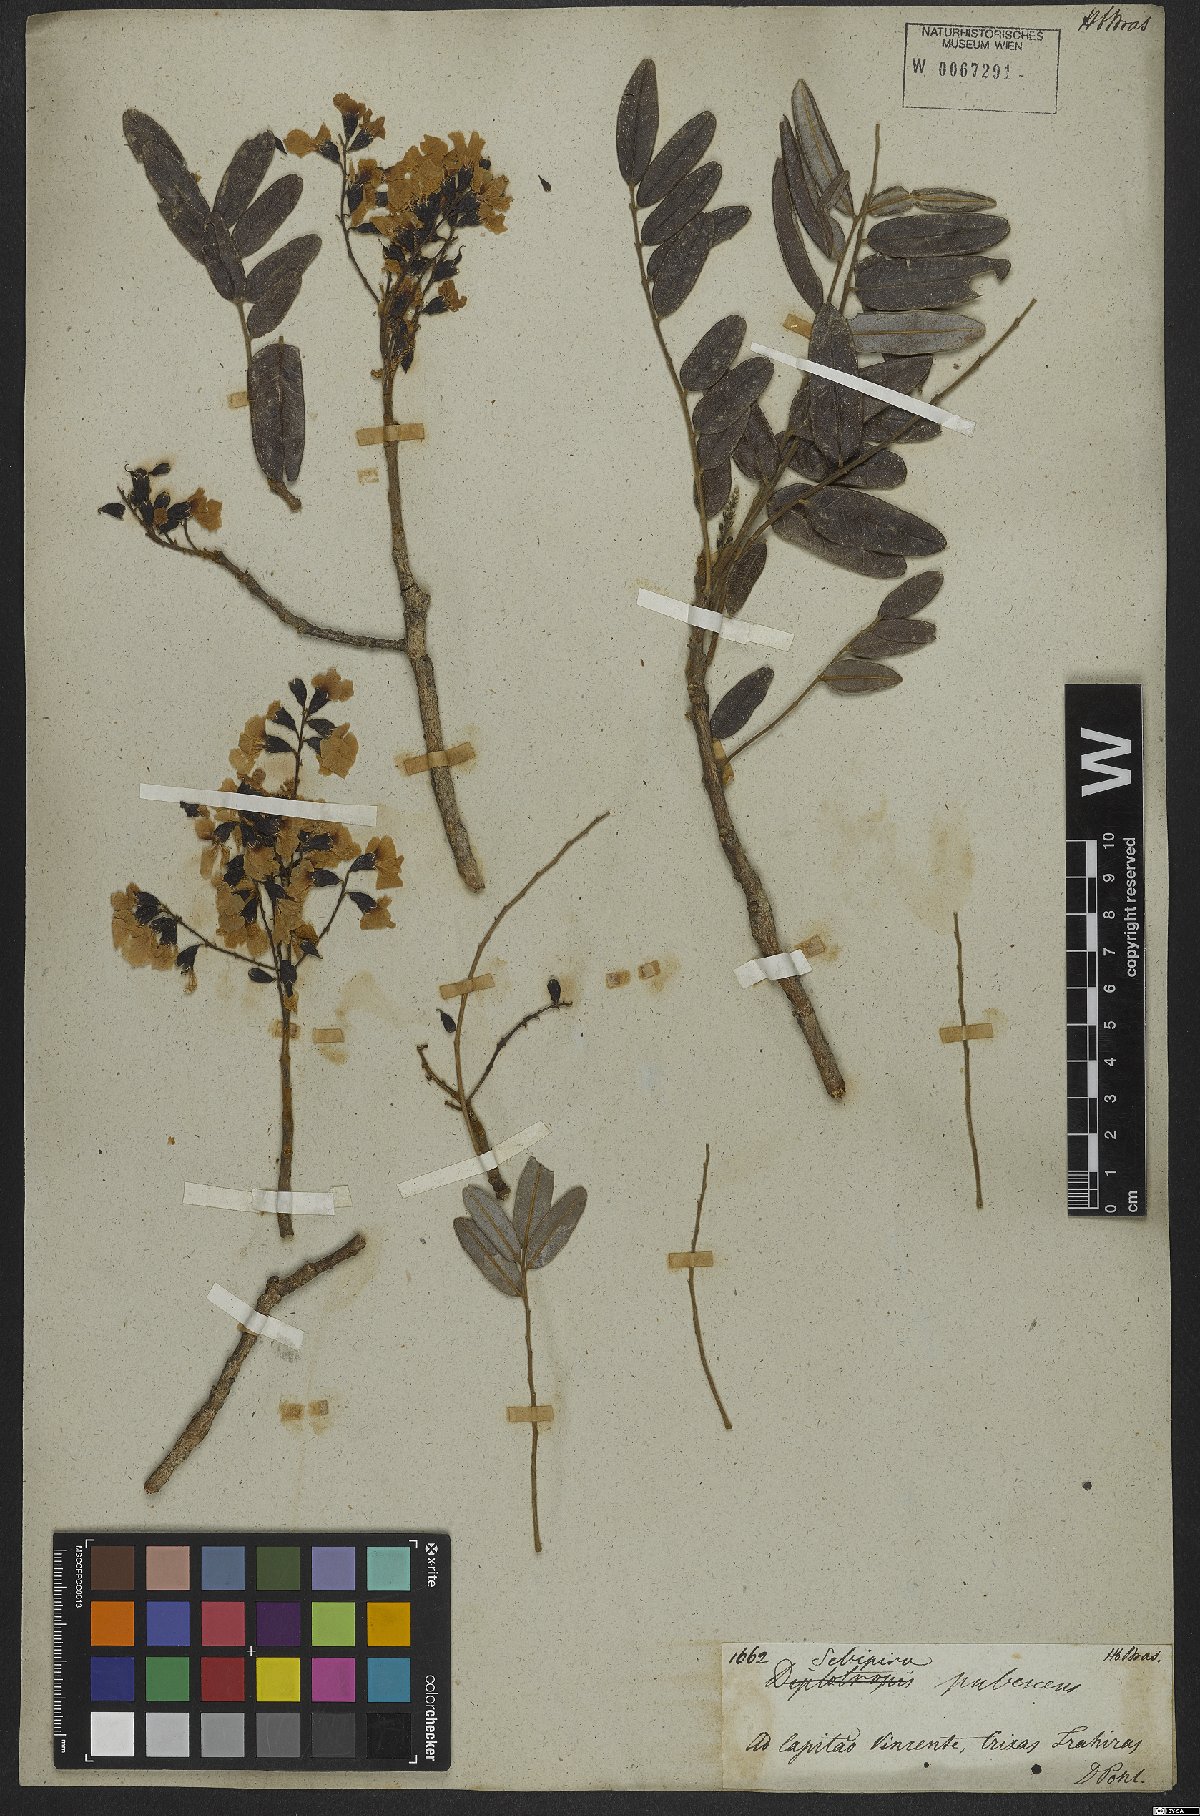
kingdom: Plantae
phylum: Tracheophyta
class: Magnoliopsida
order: Fabales
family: Fabaceae
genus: Bowdichia
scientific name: Bowdichia virgilioides
